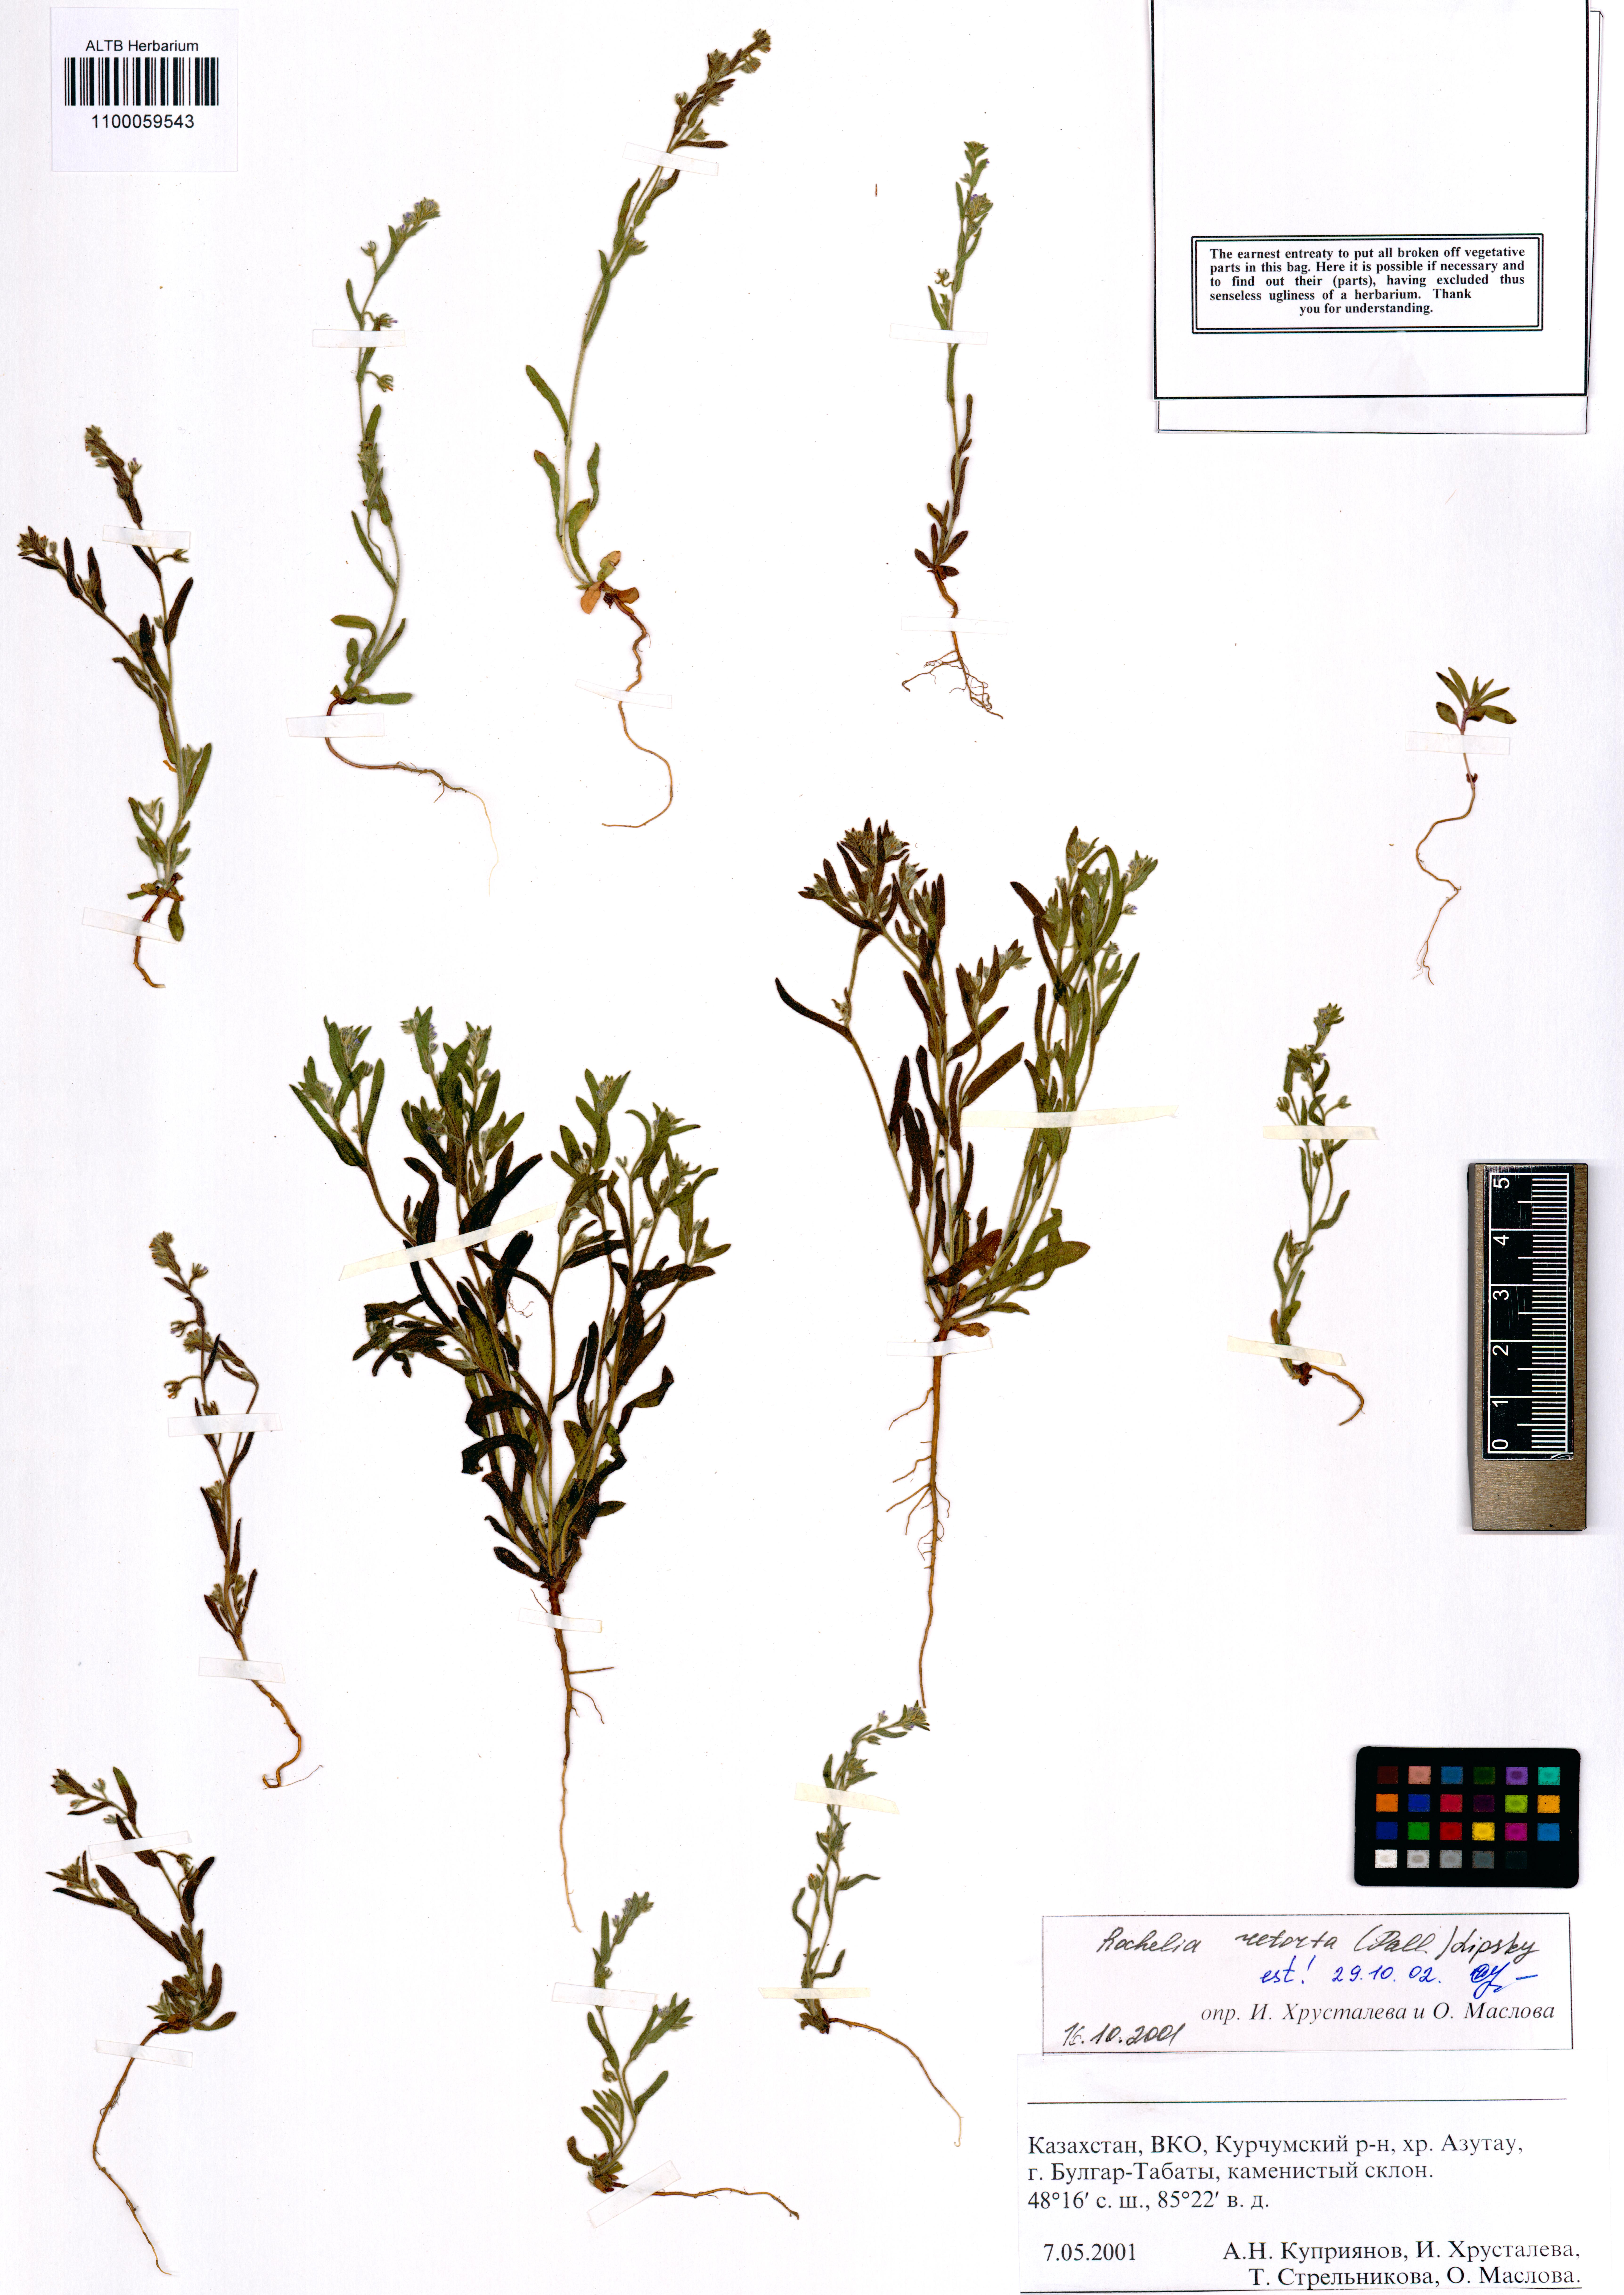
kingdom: Plantae
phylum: Tracheophyta
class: Magnoliopsida
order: Boraginales
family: Boraginaceae
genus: Rochelia
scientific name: Rochelia retorta
